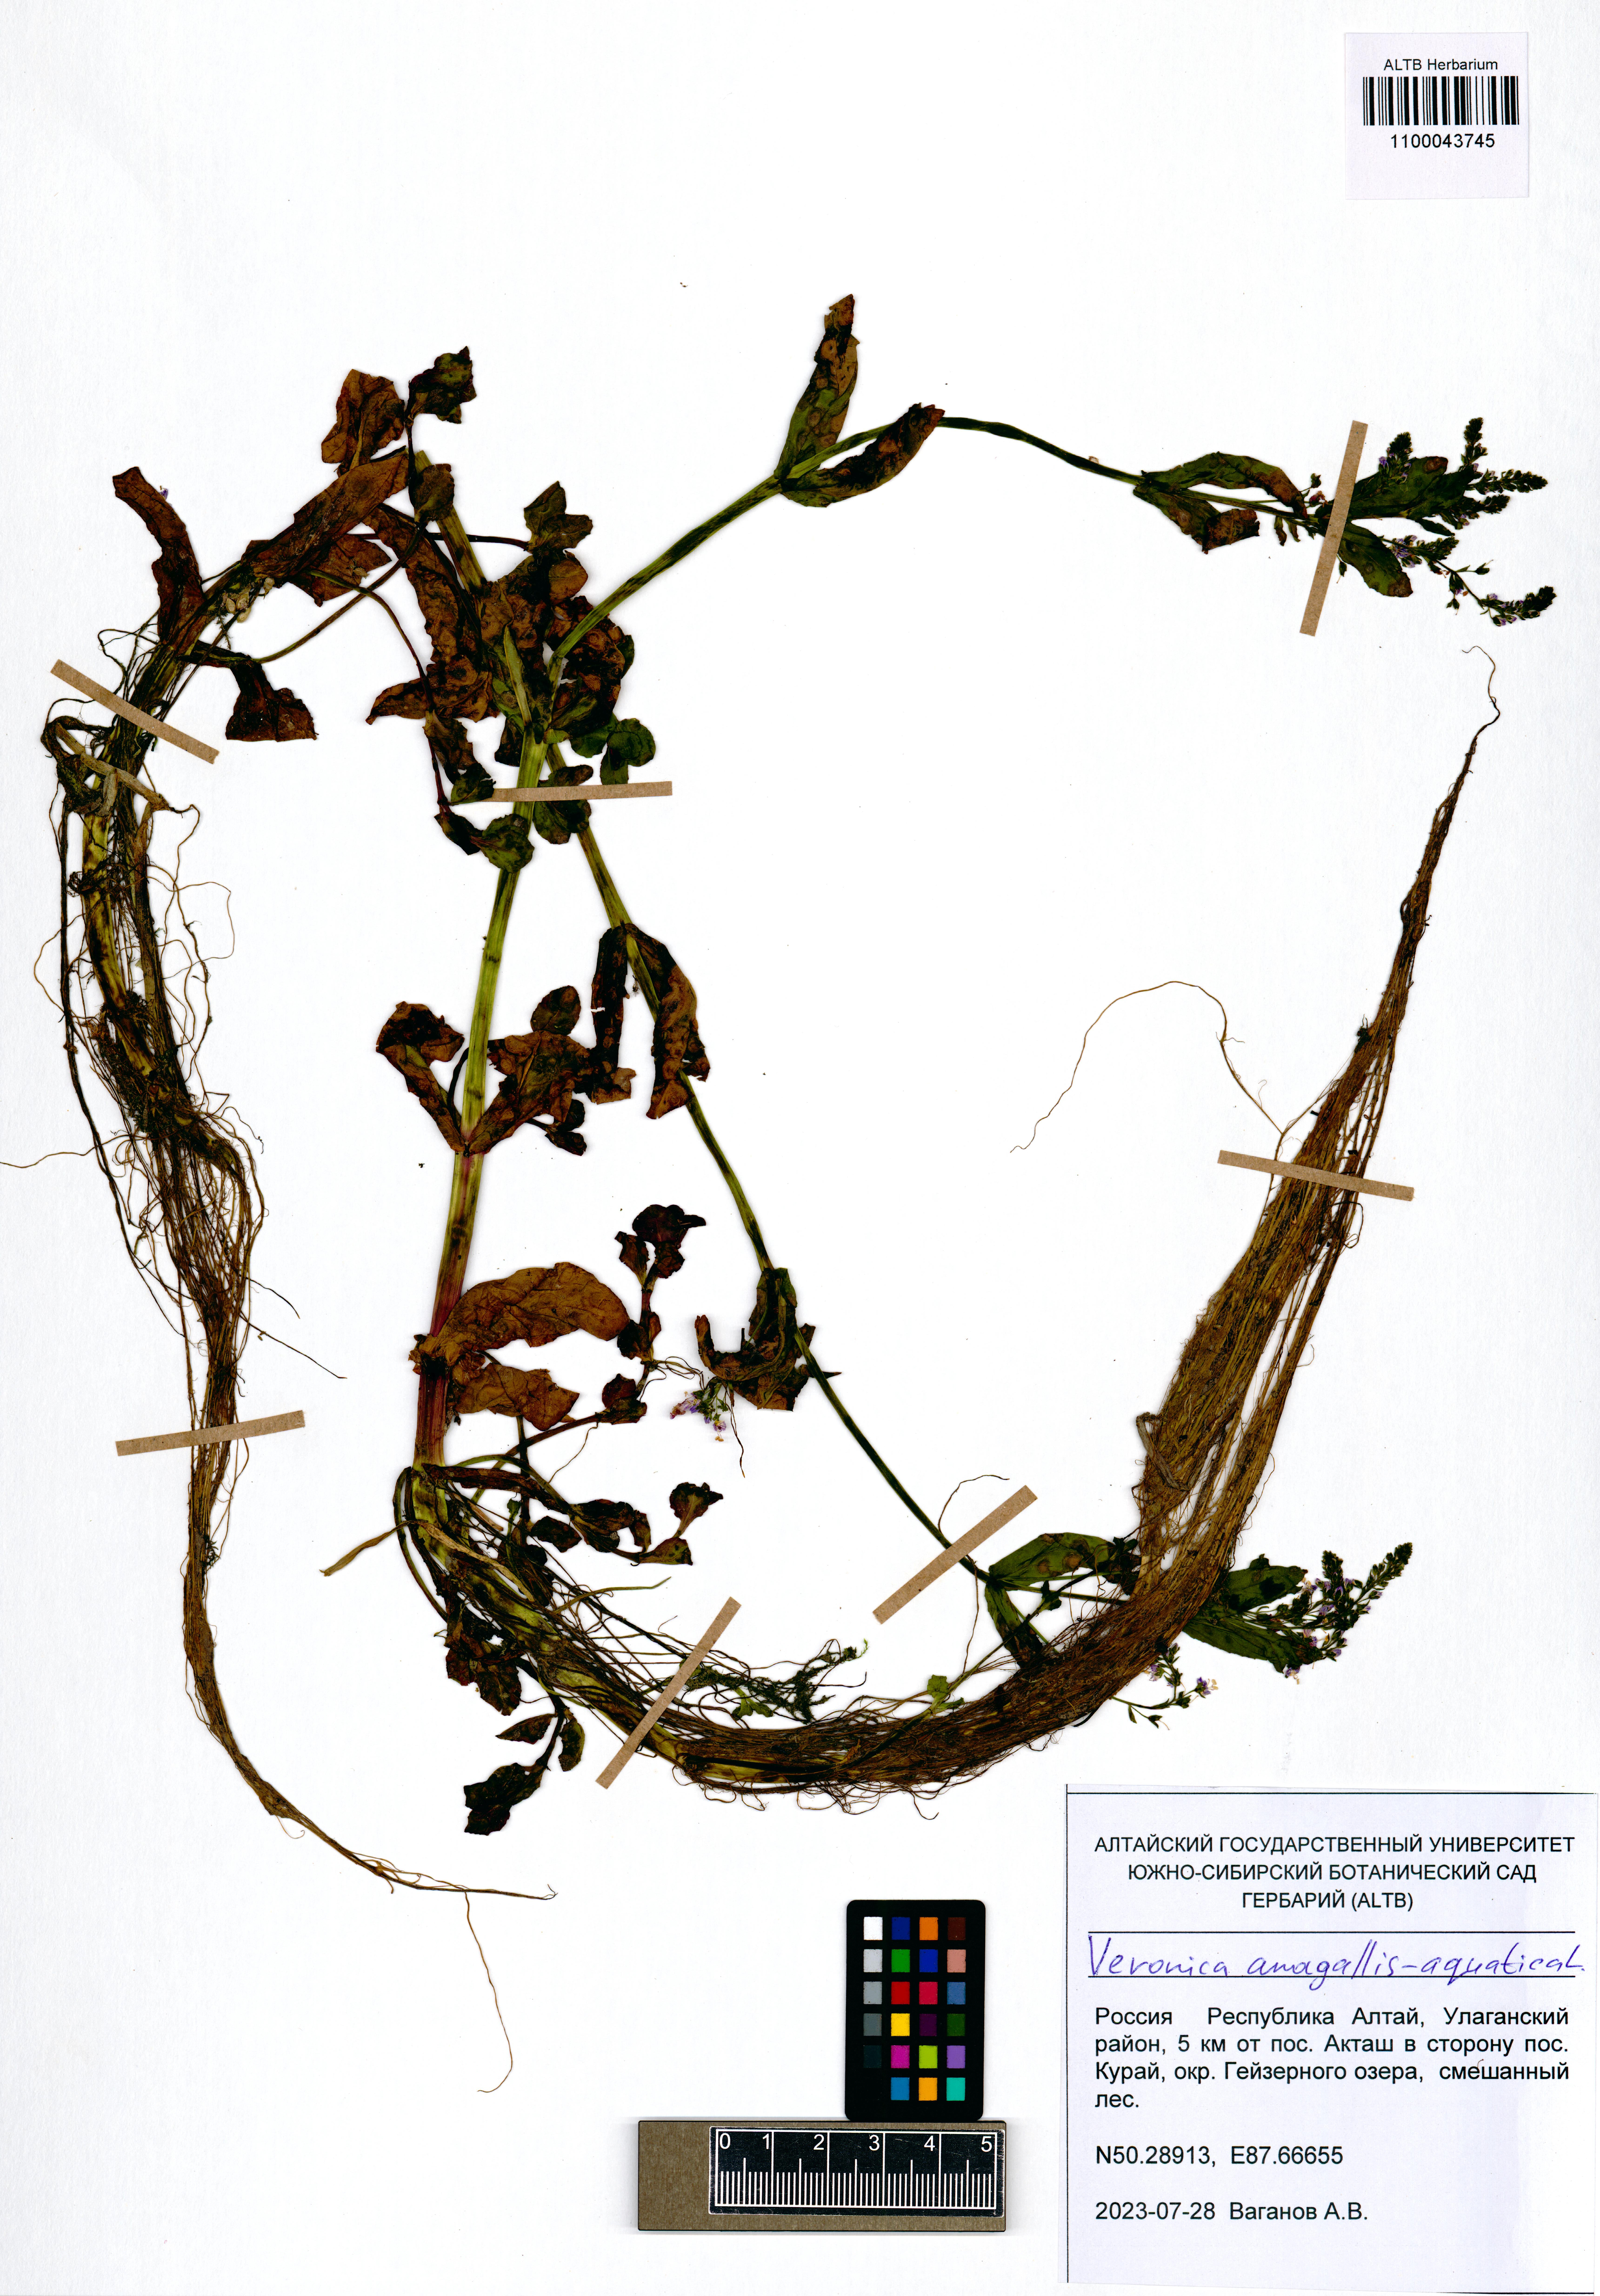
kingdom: Plantae
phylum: Tracheophyta
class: Magnoliopsida
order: Lamiales
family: Plantaginaceae
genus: Veronica
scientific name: Veronica anagallis-aquatica
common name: Water speedwell
